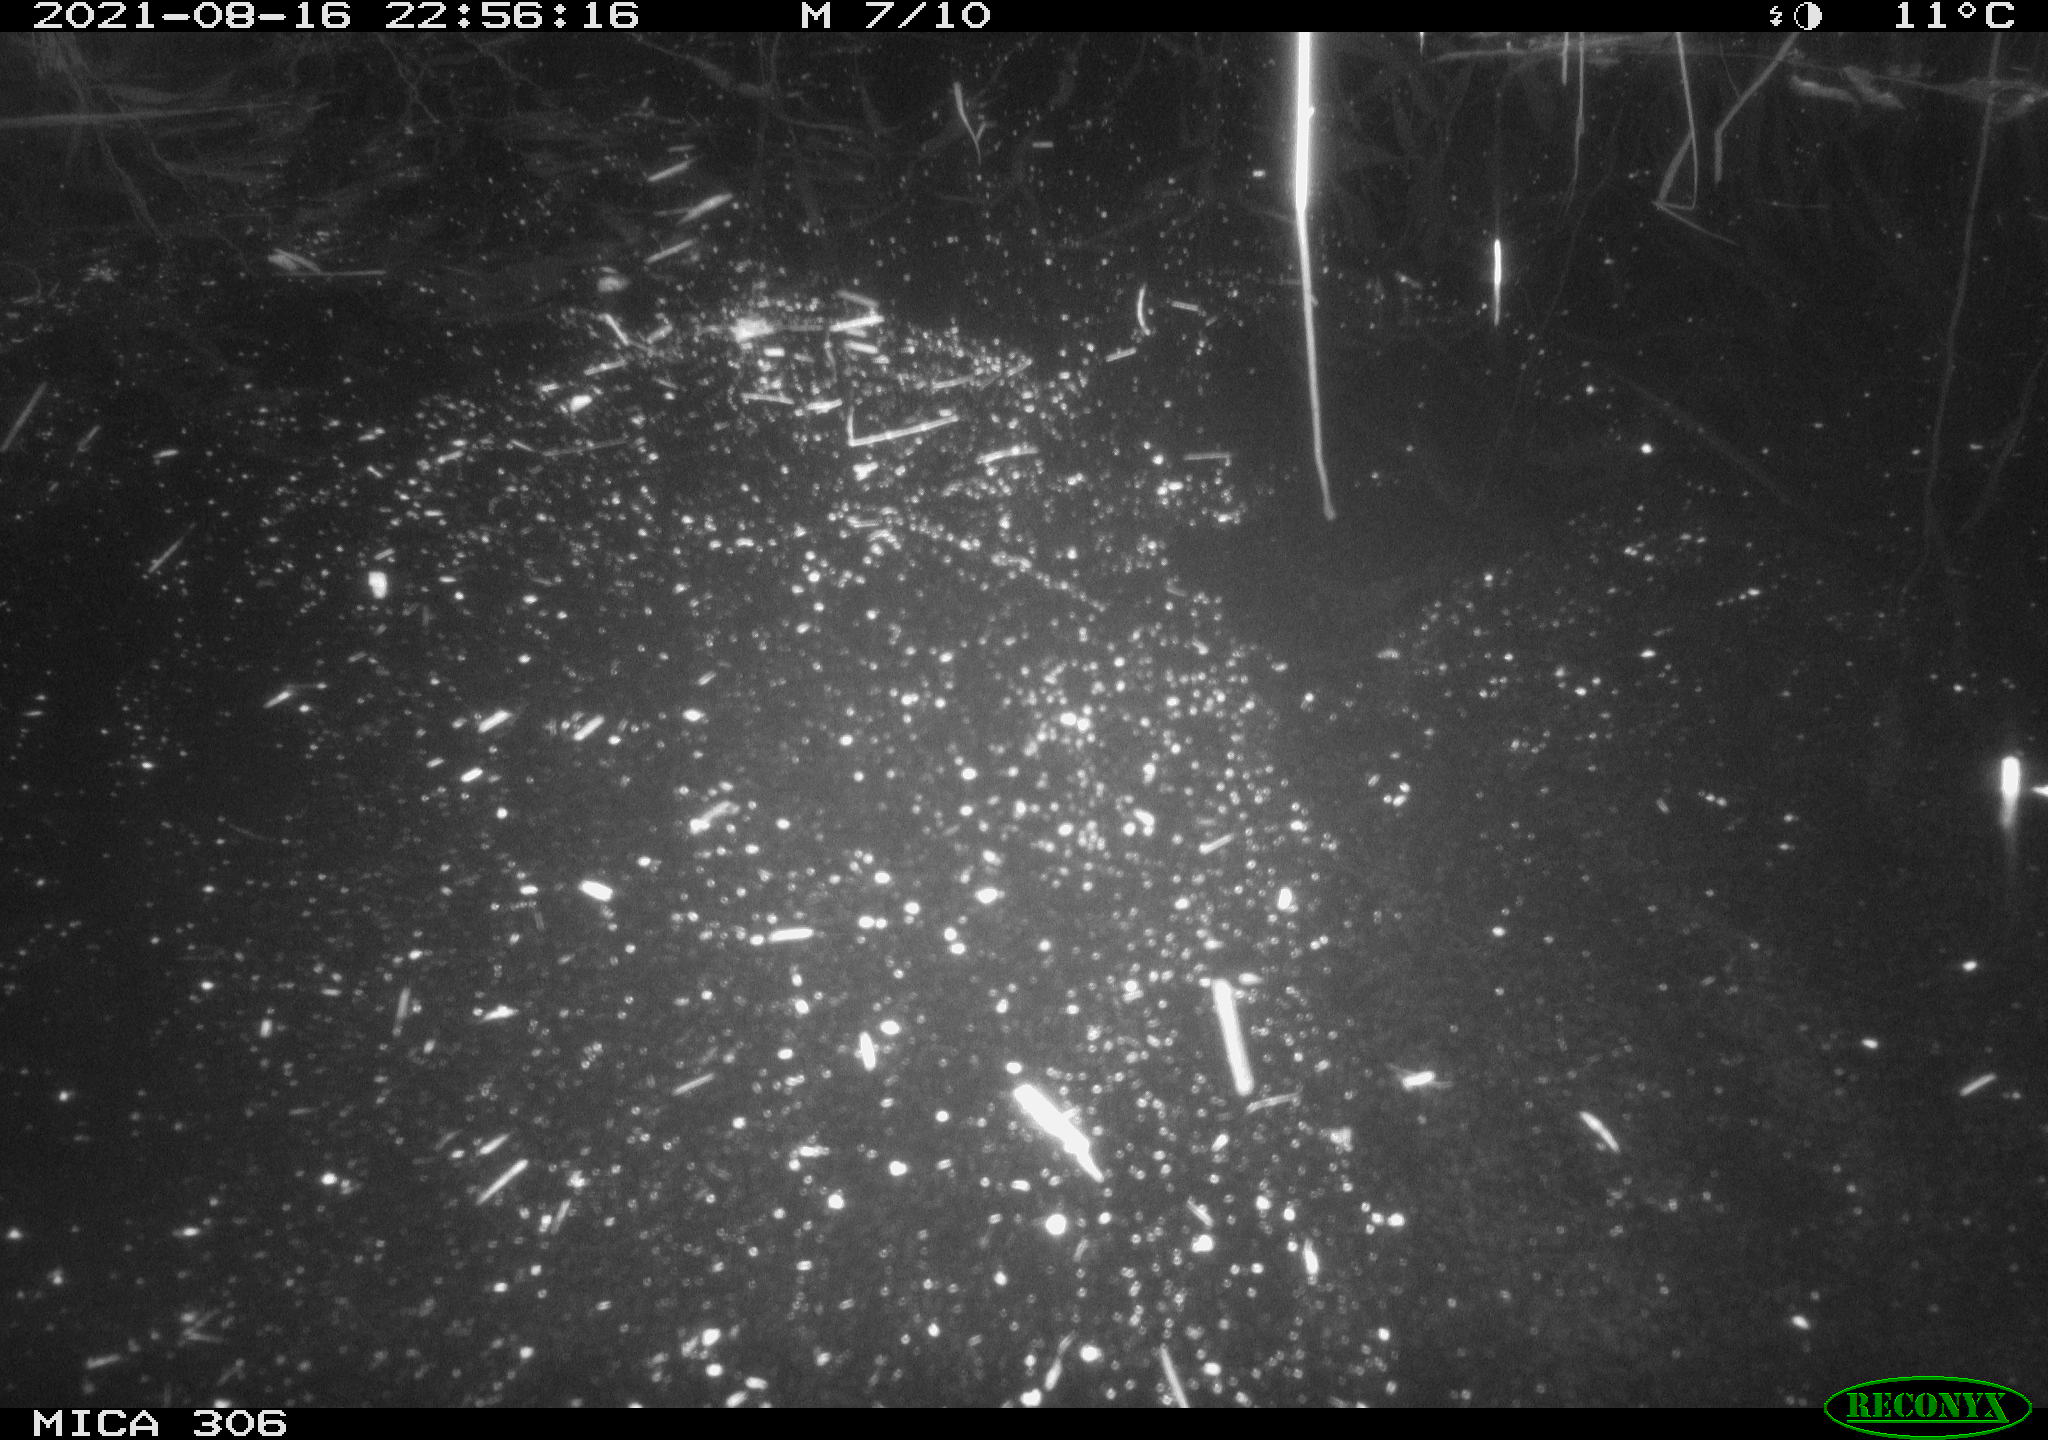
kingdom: Animalia
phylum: Chordata
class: Aves
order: Anseriformes
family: Anatidae
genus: Anas
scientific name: Anas platyrhynchos
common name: Mallard
